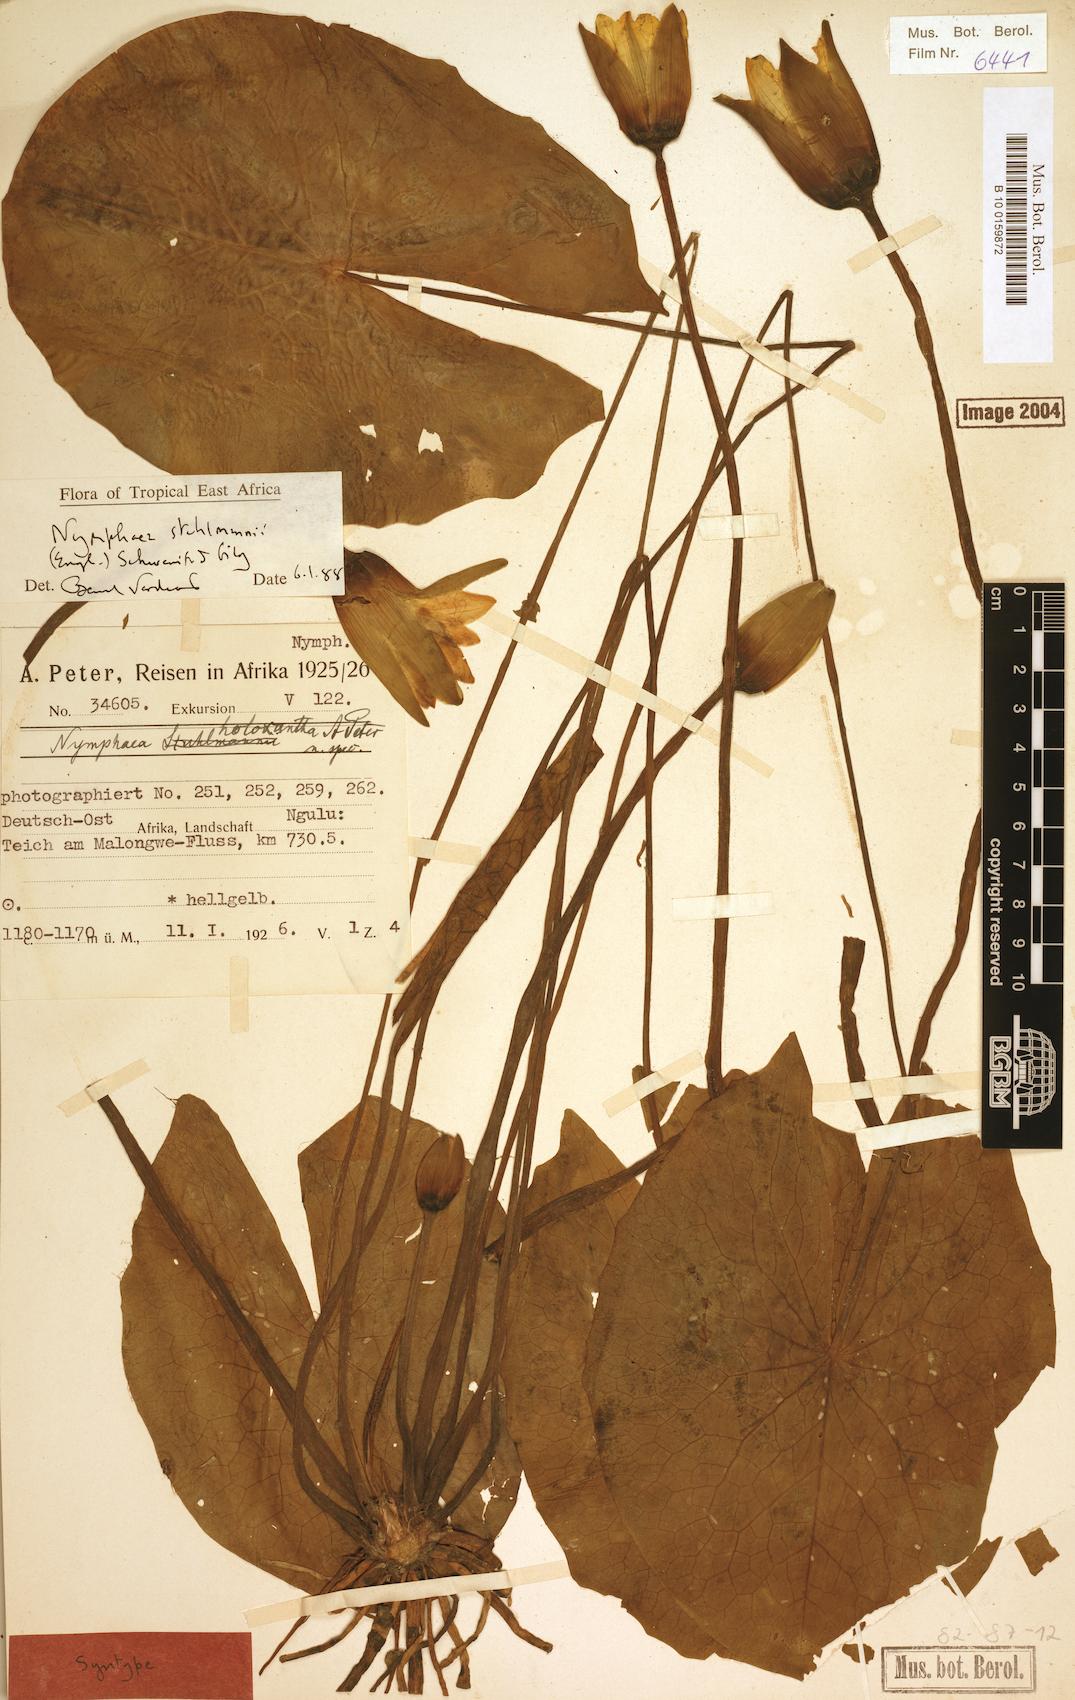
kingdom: Plantae
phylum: Tracheophyta
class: Magnoliopsida
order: Nymphaeales
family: Nymphaeaceae
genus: Nymphaea
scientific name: Nymphaea stuhlmannii
